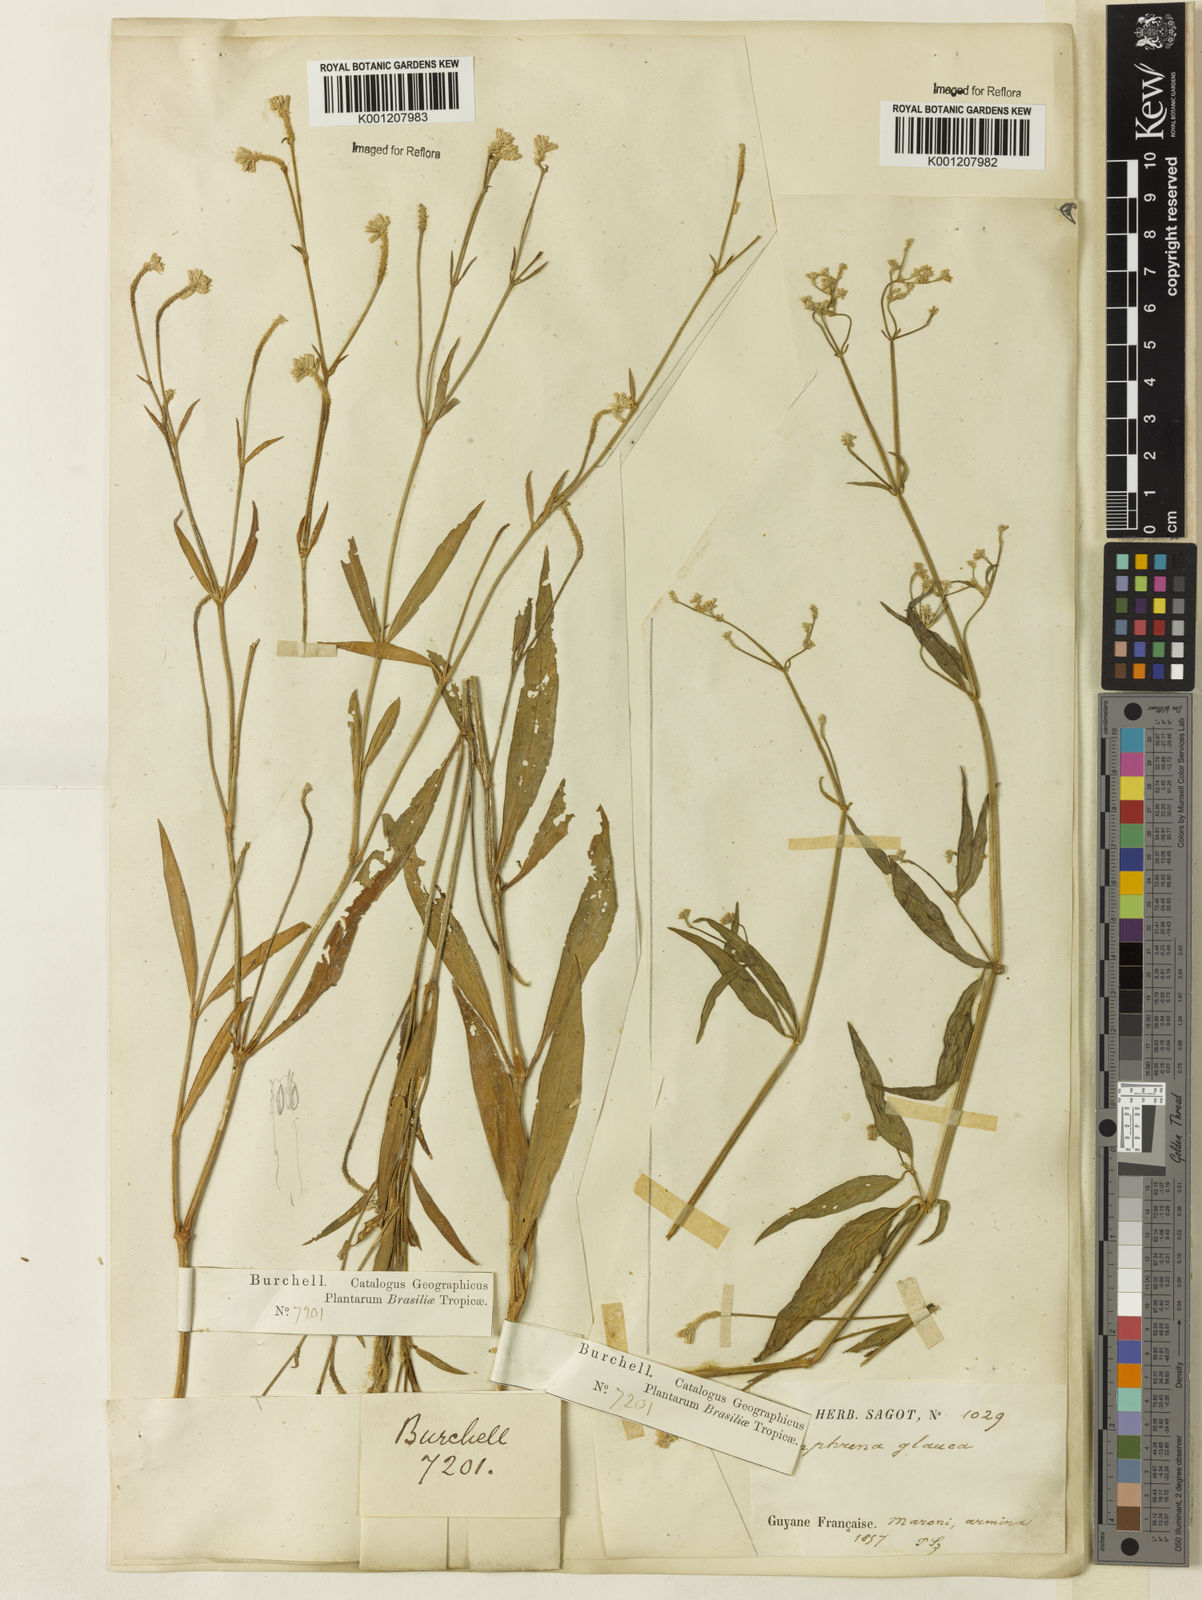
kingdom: Plantae
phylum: Tracheophyta
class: Magnoliopsida
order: Caryophyllales
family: Amaranthaceae
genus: Pfaffia
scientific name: Pfaffia
